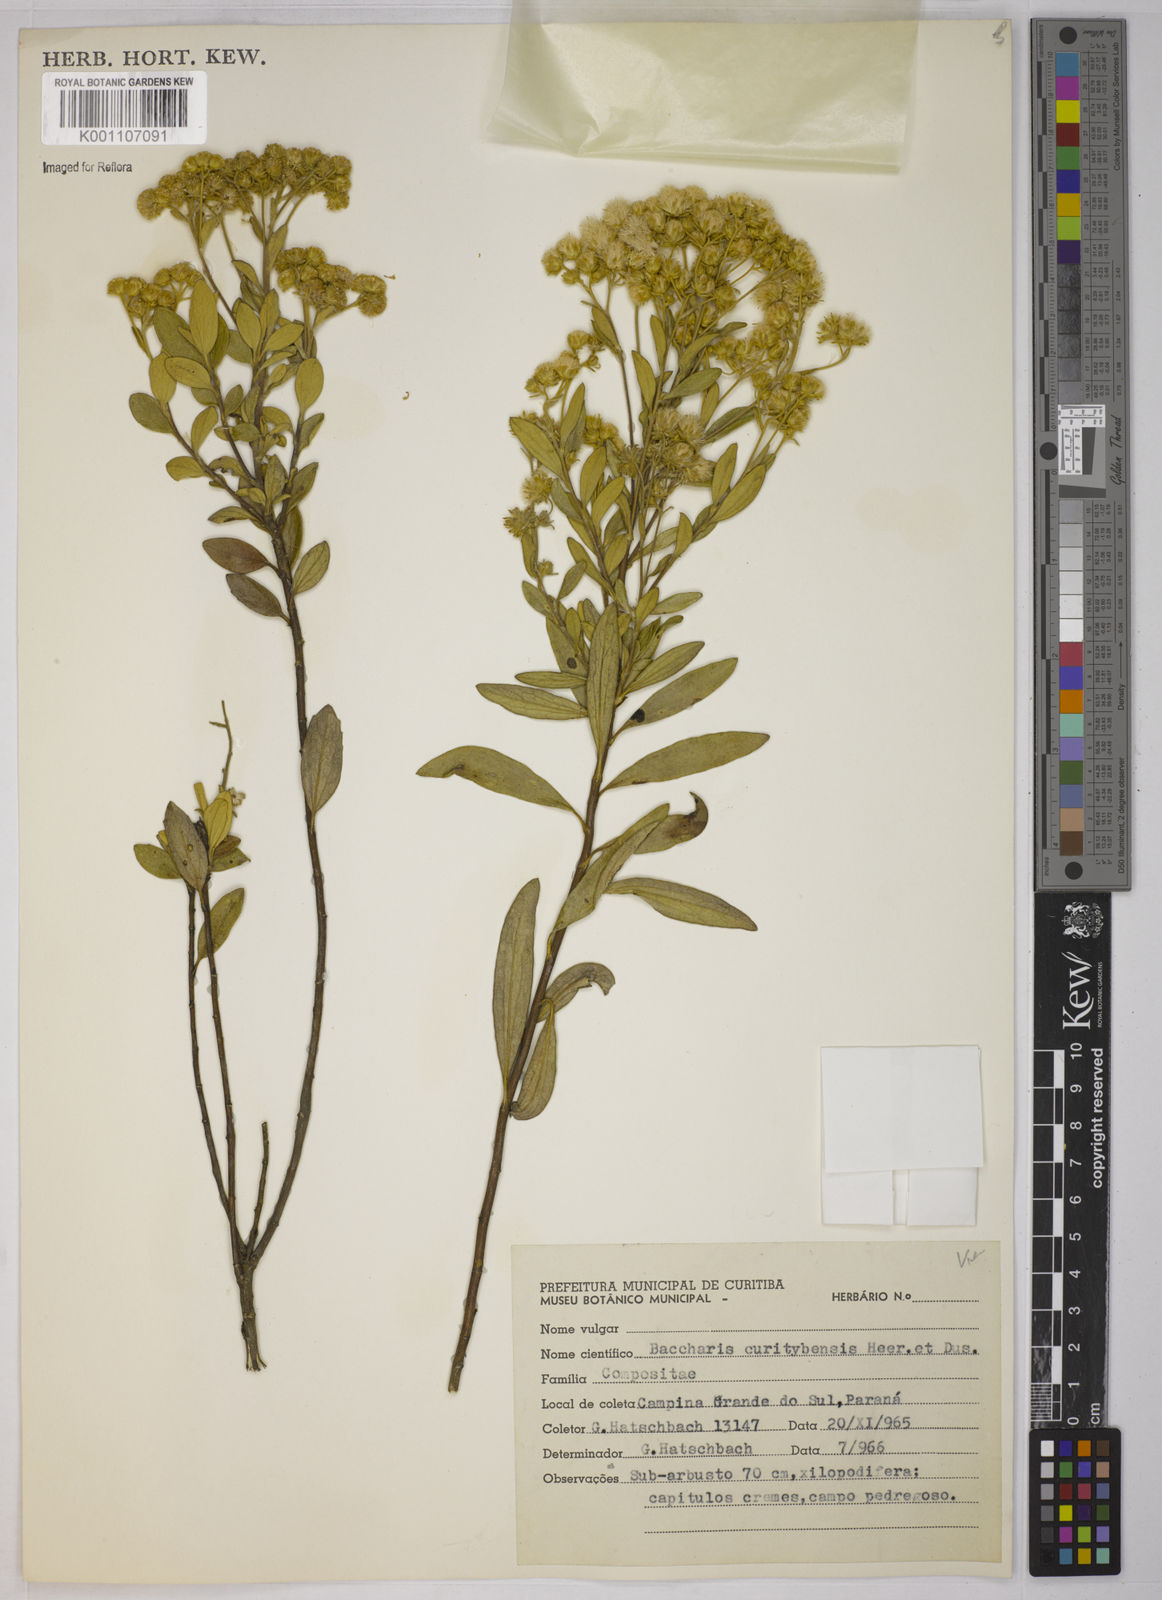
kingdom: Plantae
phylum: Tracheophyta
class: Magnoliopsida
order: Asterales
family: Asteraceae
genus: Baccharis
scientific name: Baccharis curitybensis
